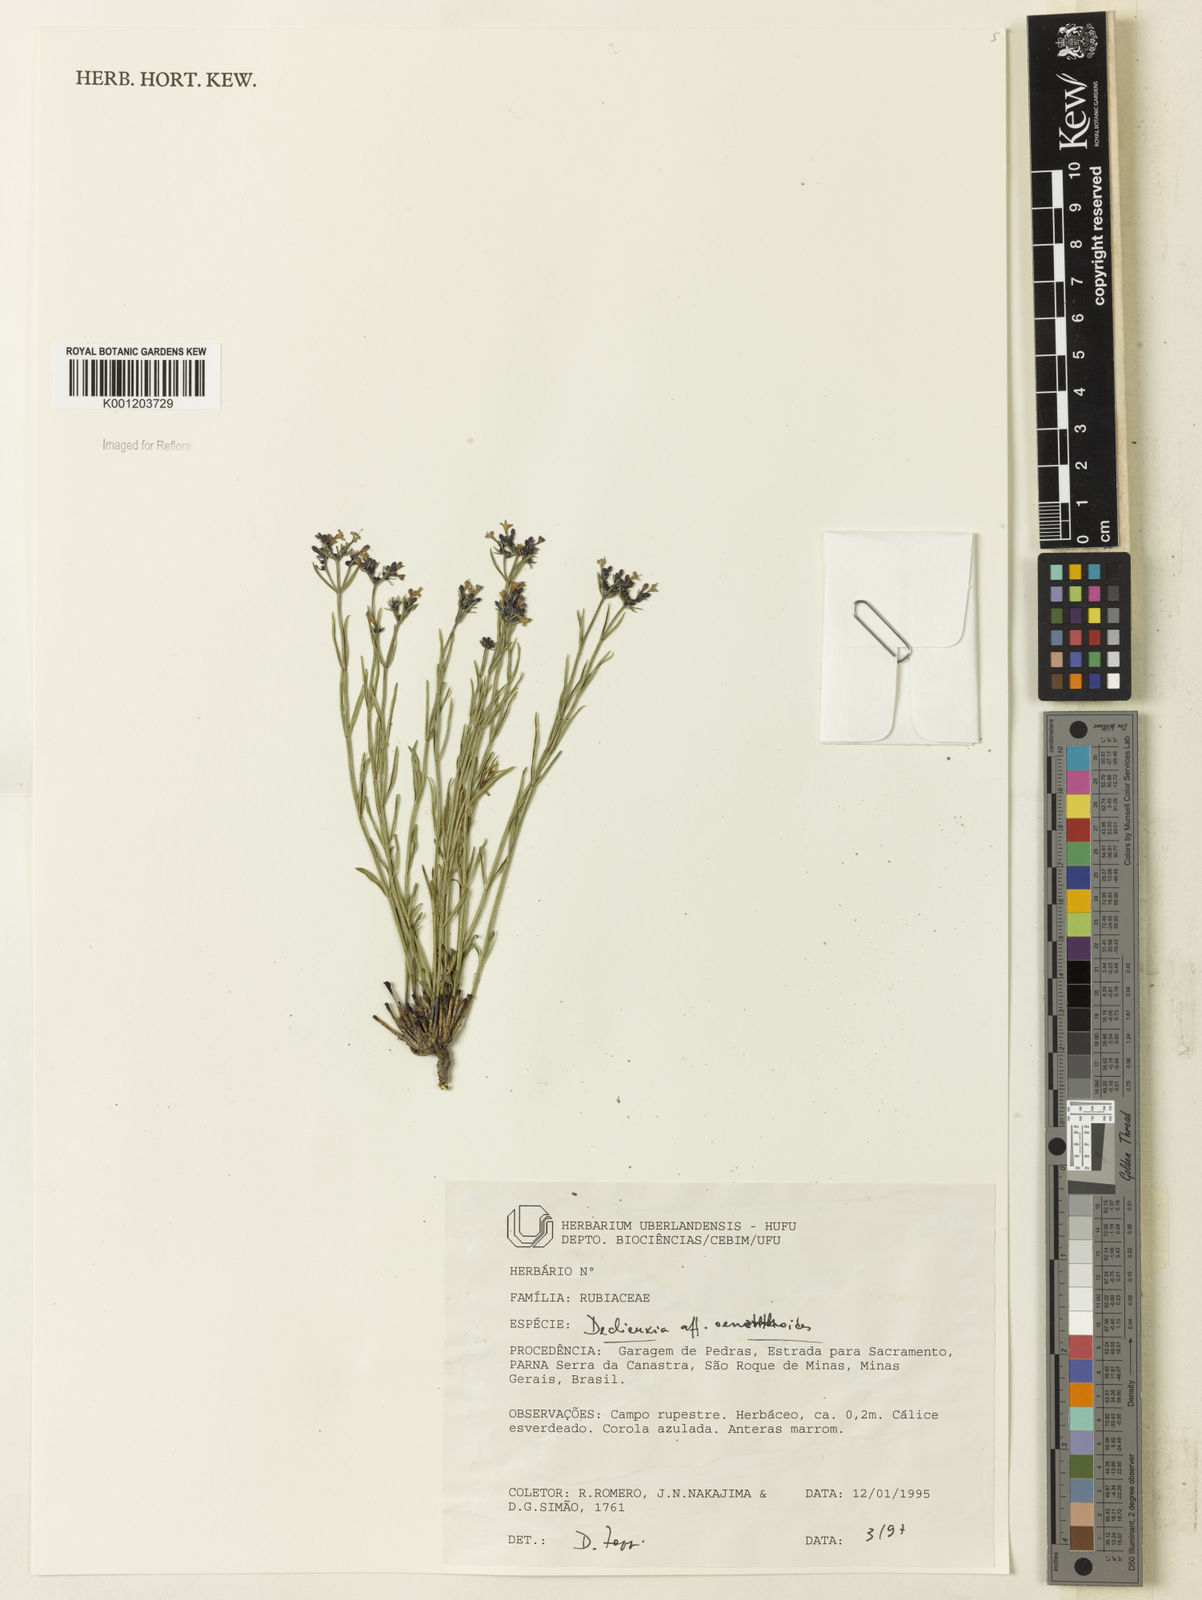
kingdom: Plantae
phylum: Tracheophyta
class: Magnoliopsida
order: Gentianales
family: Rubiaceae
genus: Declieuxia
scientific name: Declieuxia
